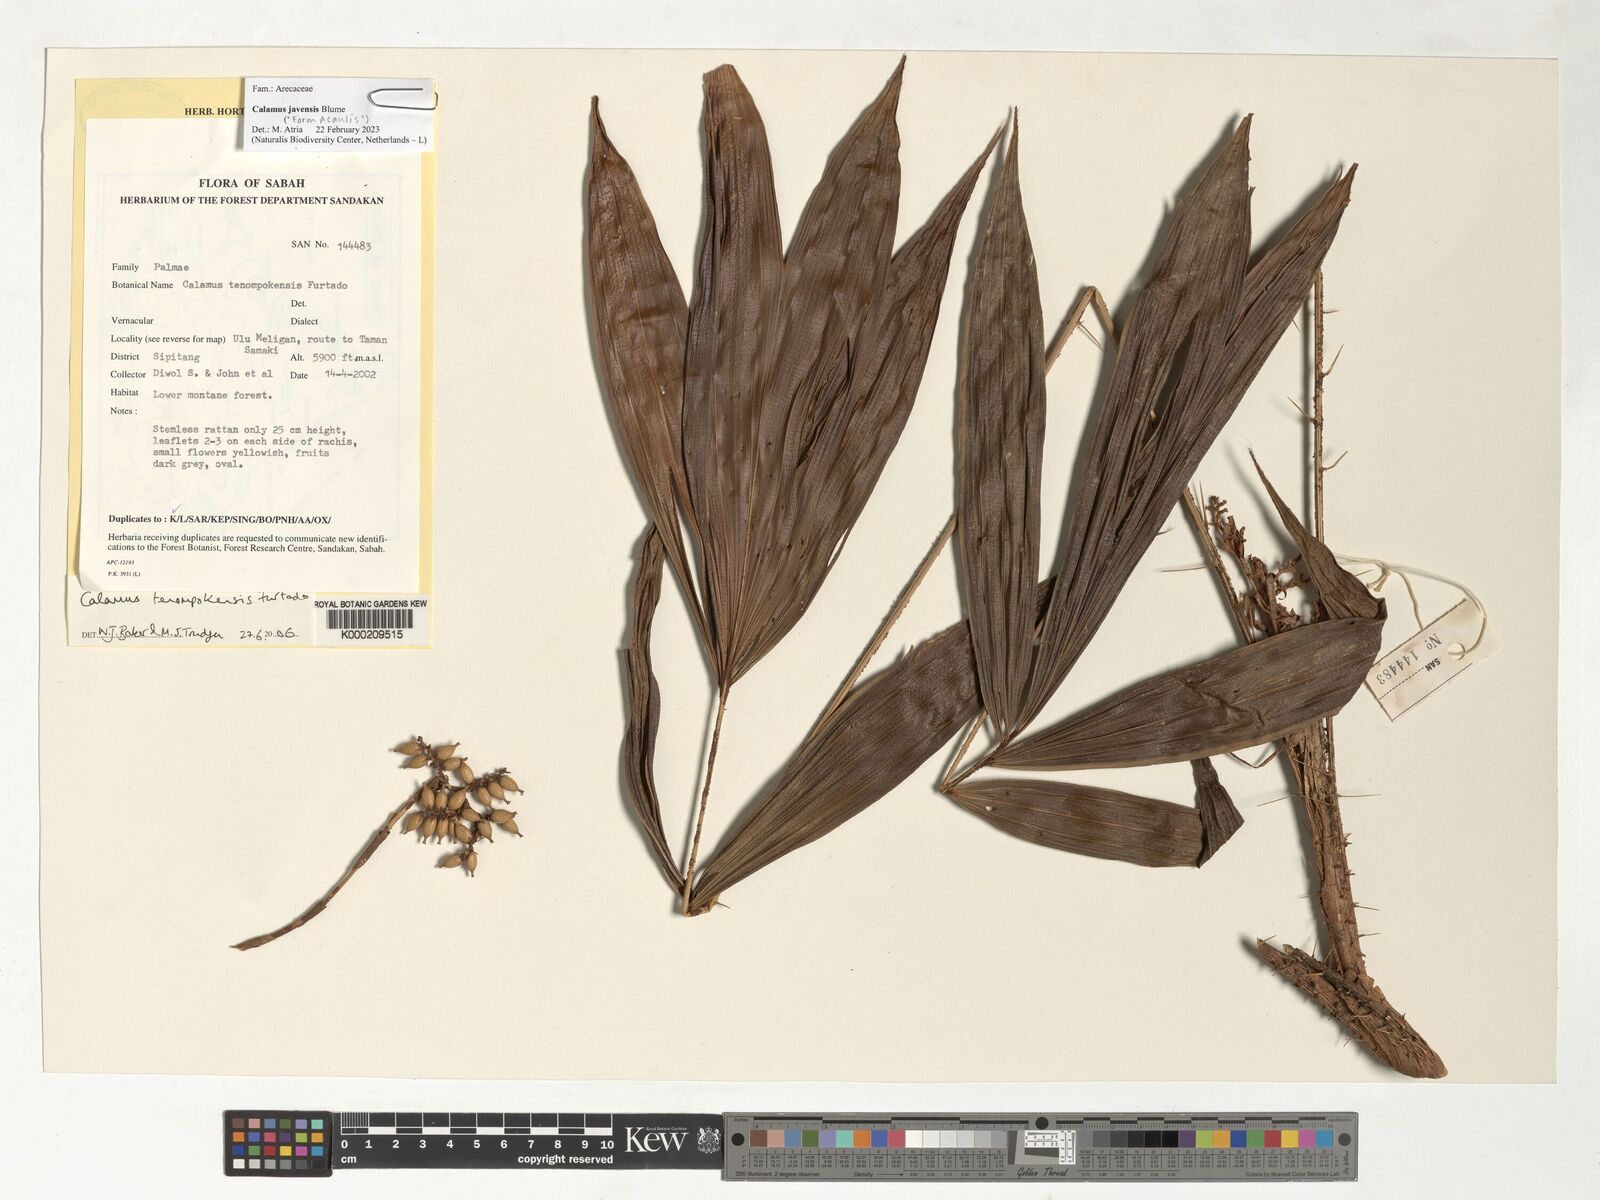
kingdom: Plantae
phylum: Tracheophyta
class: Liliopsida
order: Arecales
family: Arecaceae
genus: Calamus
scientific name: Calamus javensis
